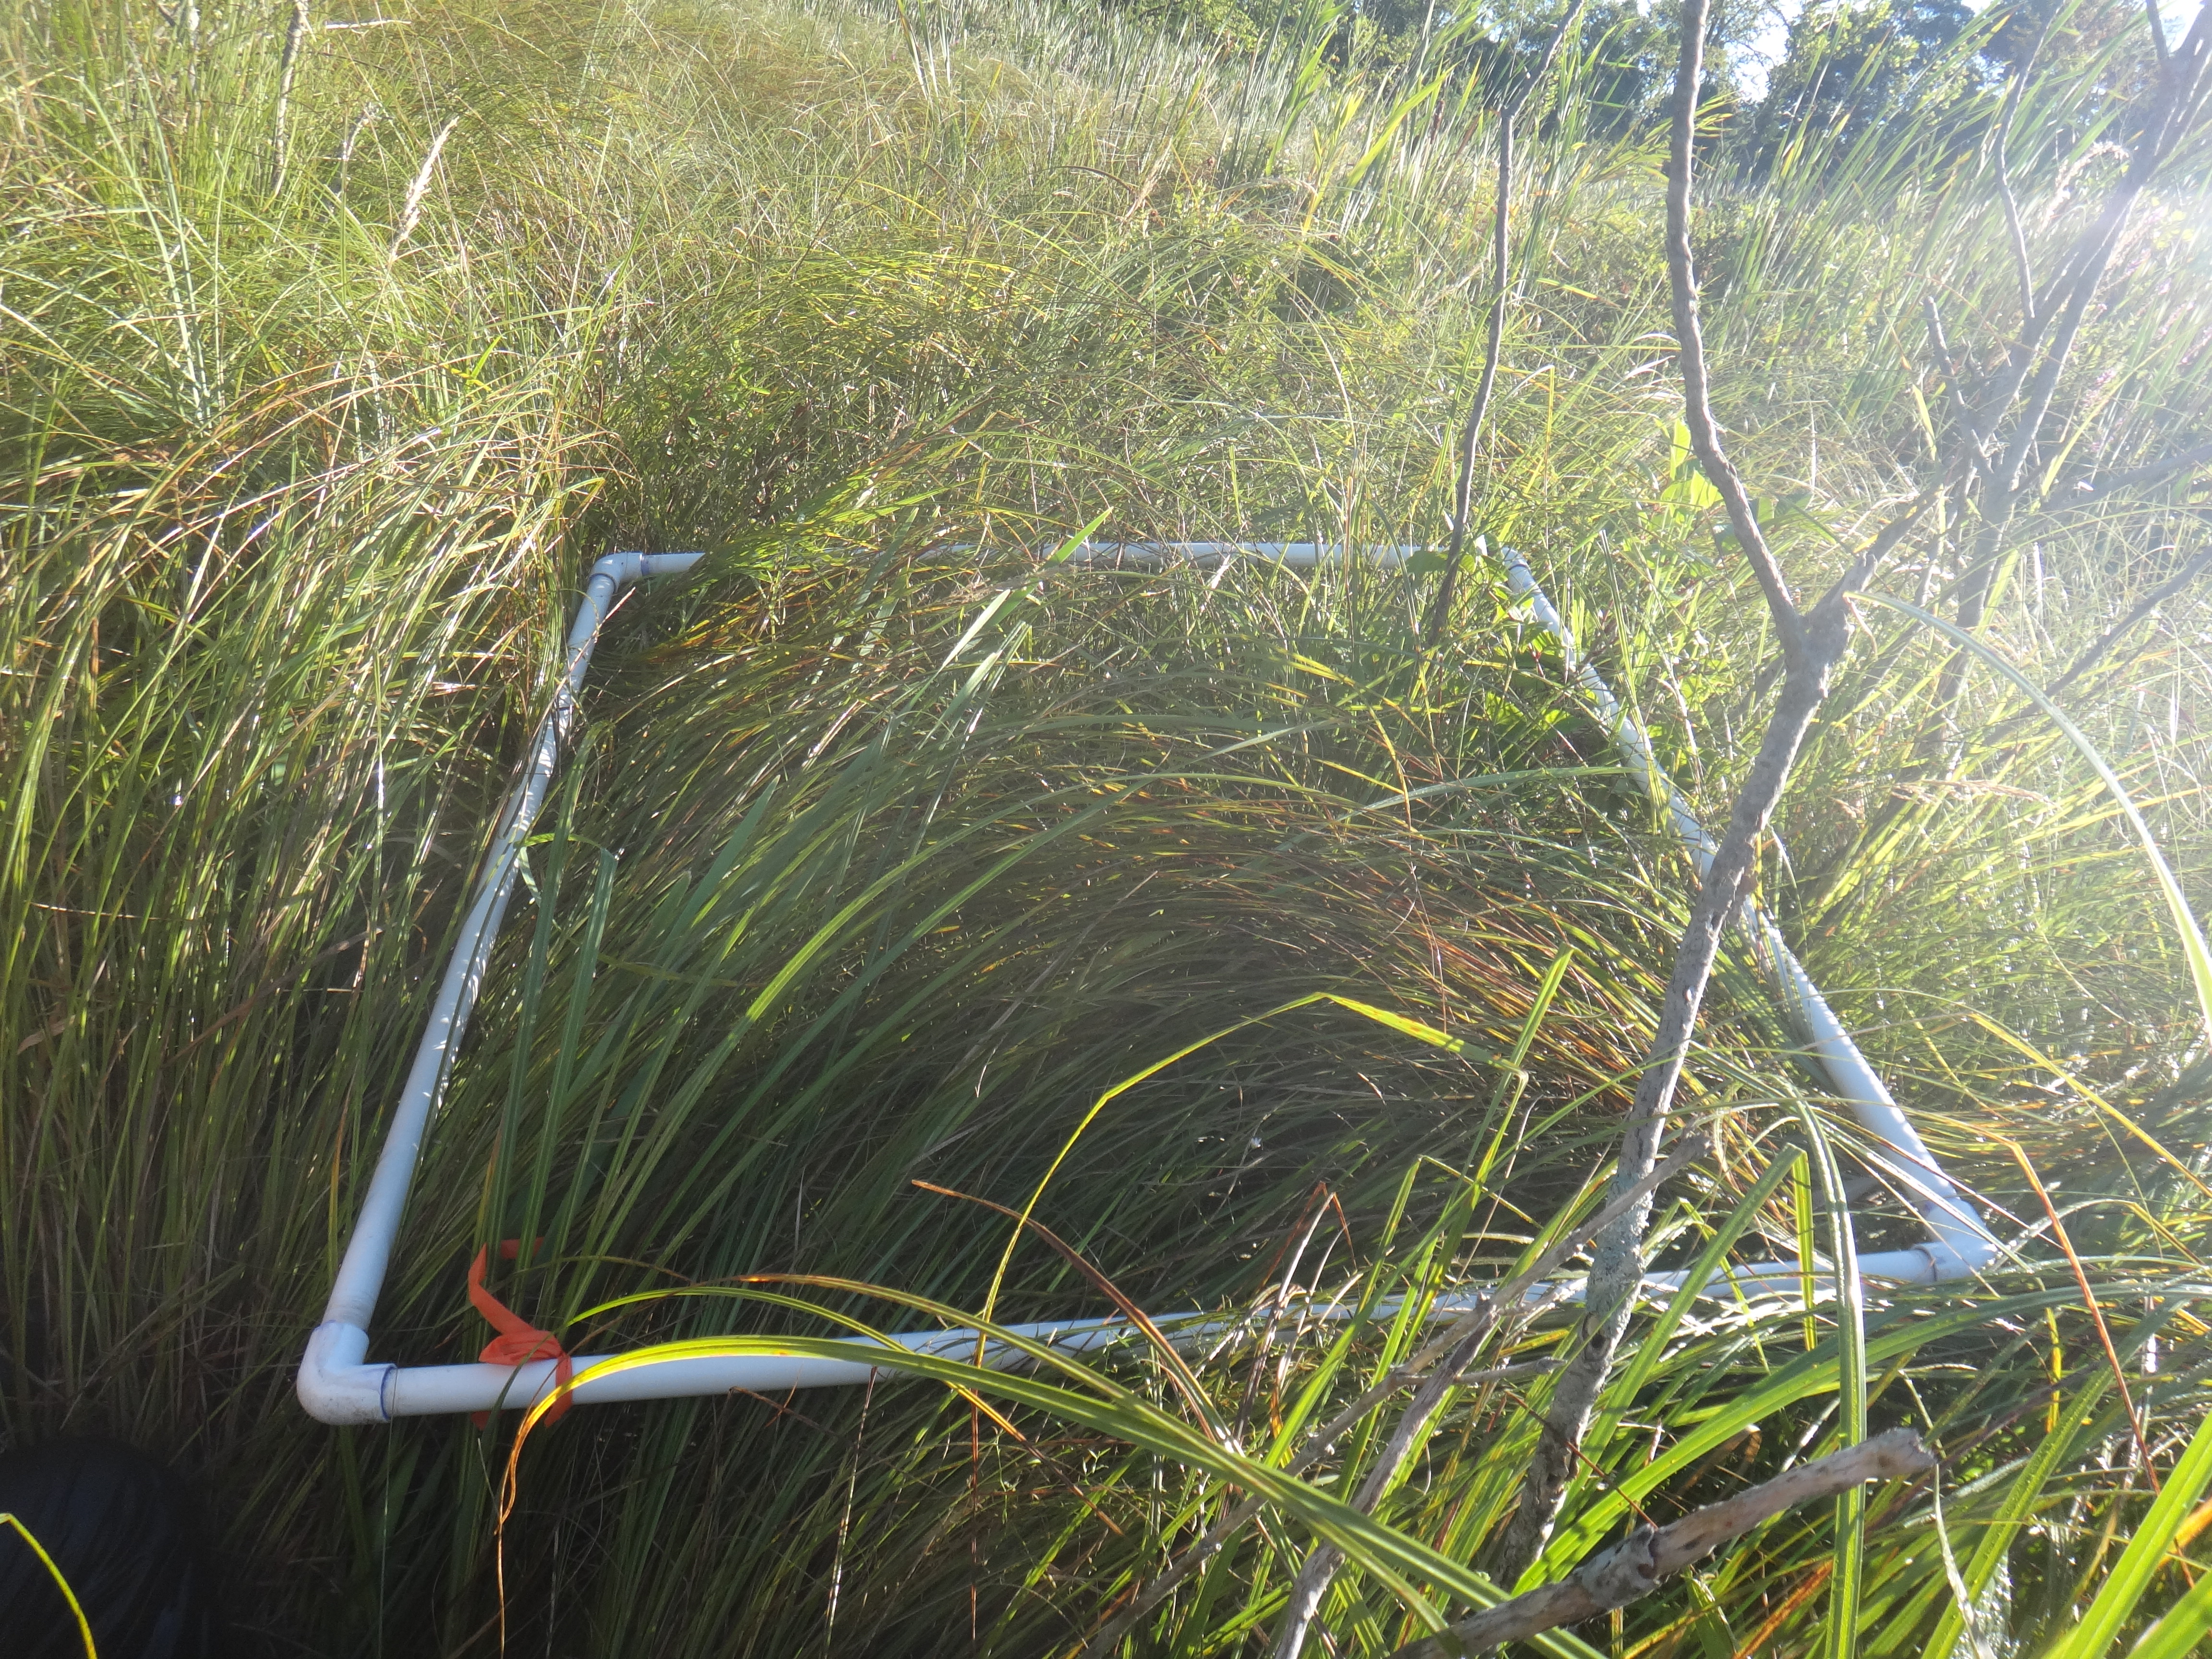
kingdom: Plantae
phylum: Tracheophyta
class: Liliopsida
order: Poales
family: Typhaceae
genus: Typha
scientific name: Typha angustifolia
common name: Lesser bulrush
